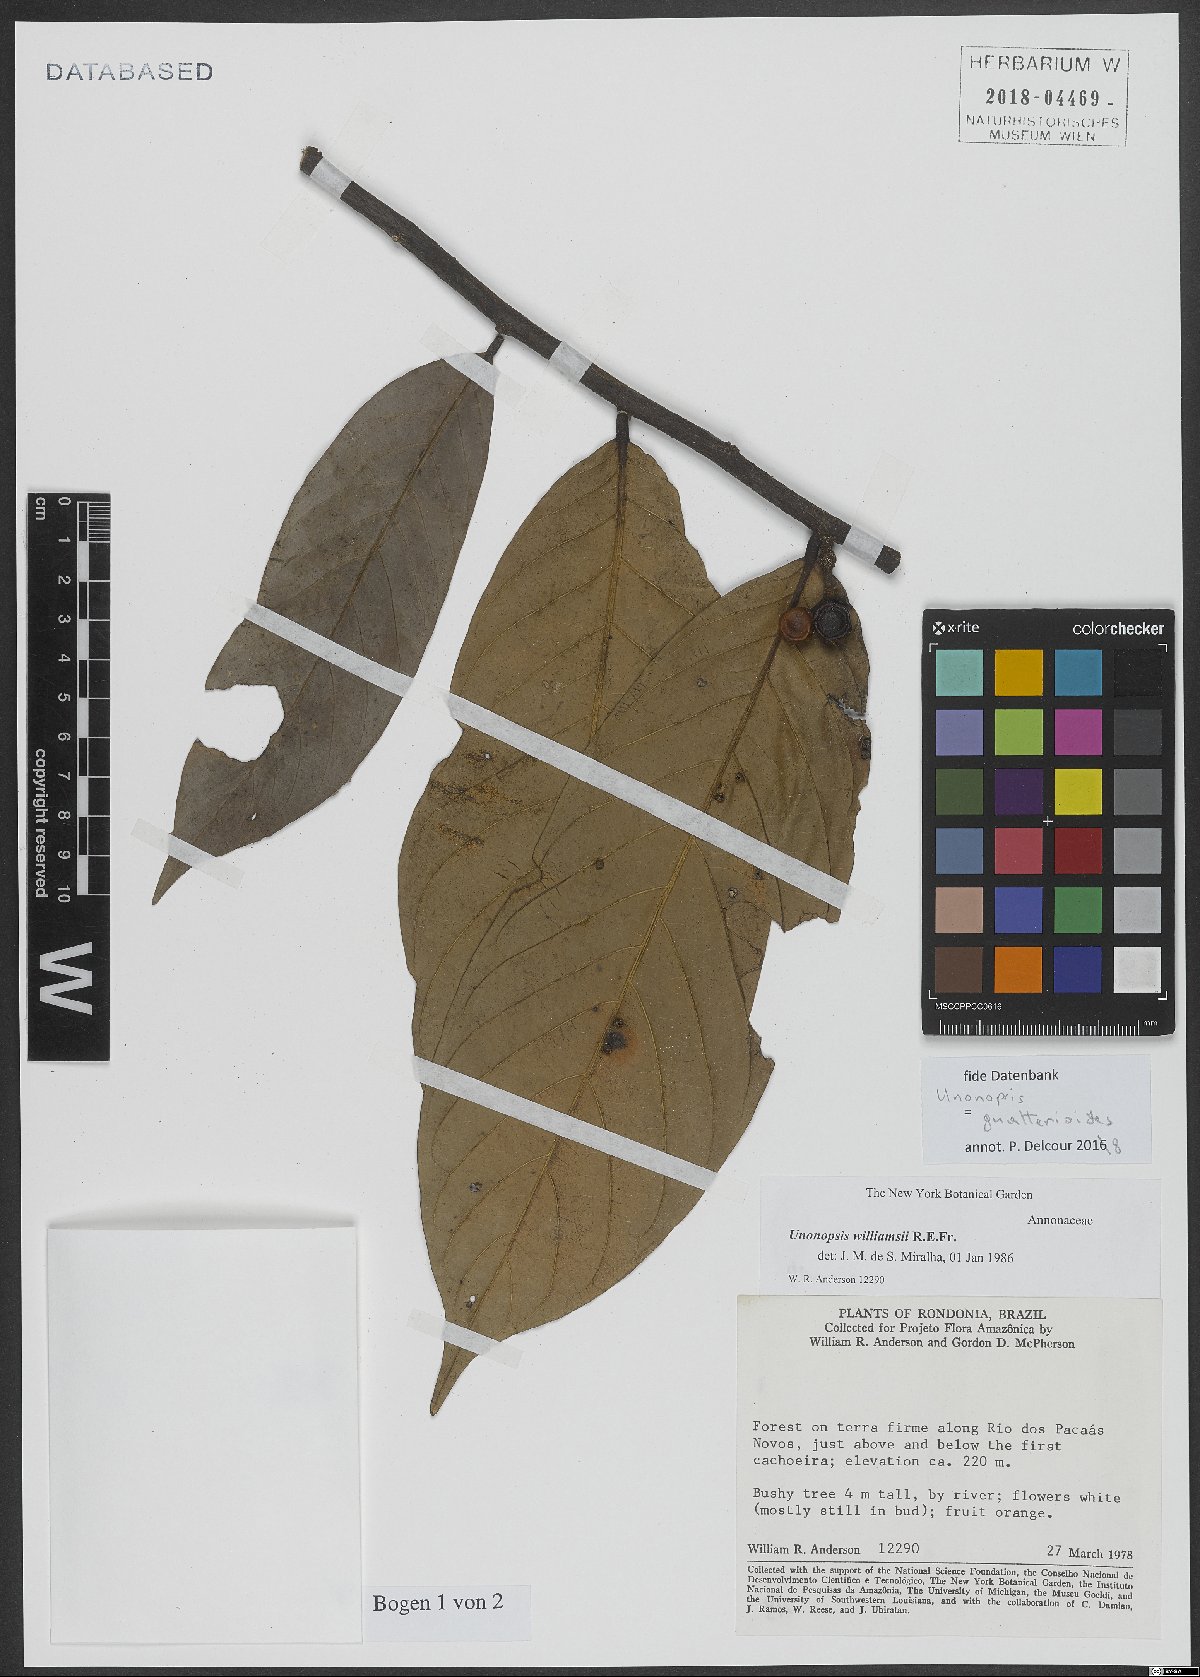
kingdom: Plantae
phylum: Tracheophyta
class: Magnoliopsida
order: Magnoliales
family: Annonaceae
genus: Unonopsis
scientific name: Unonopsis guatterioides
